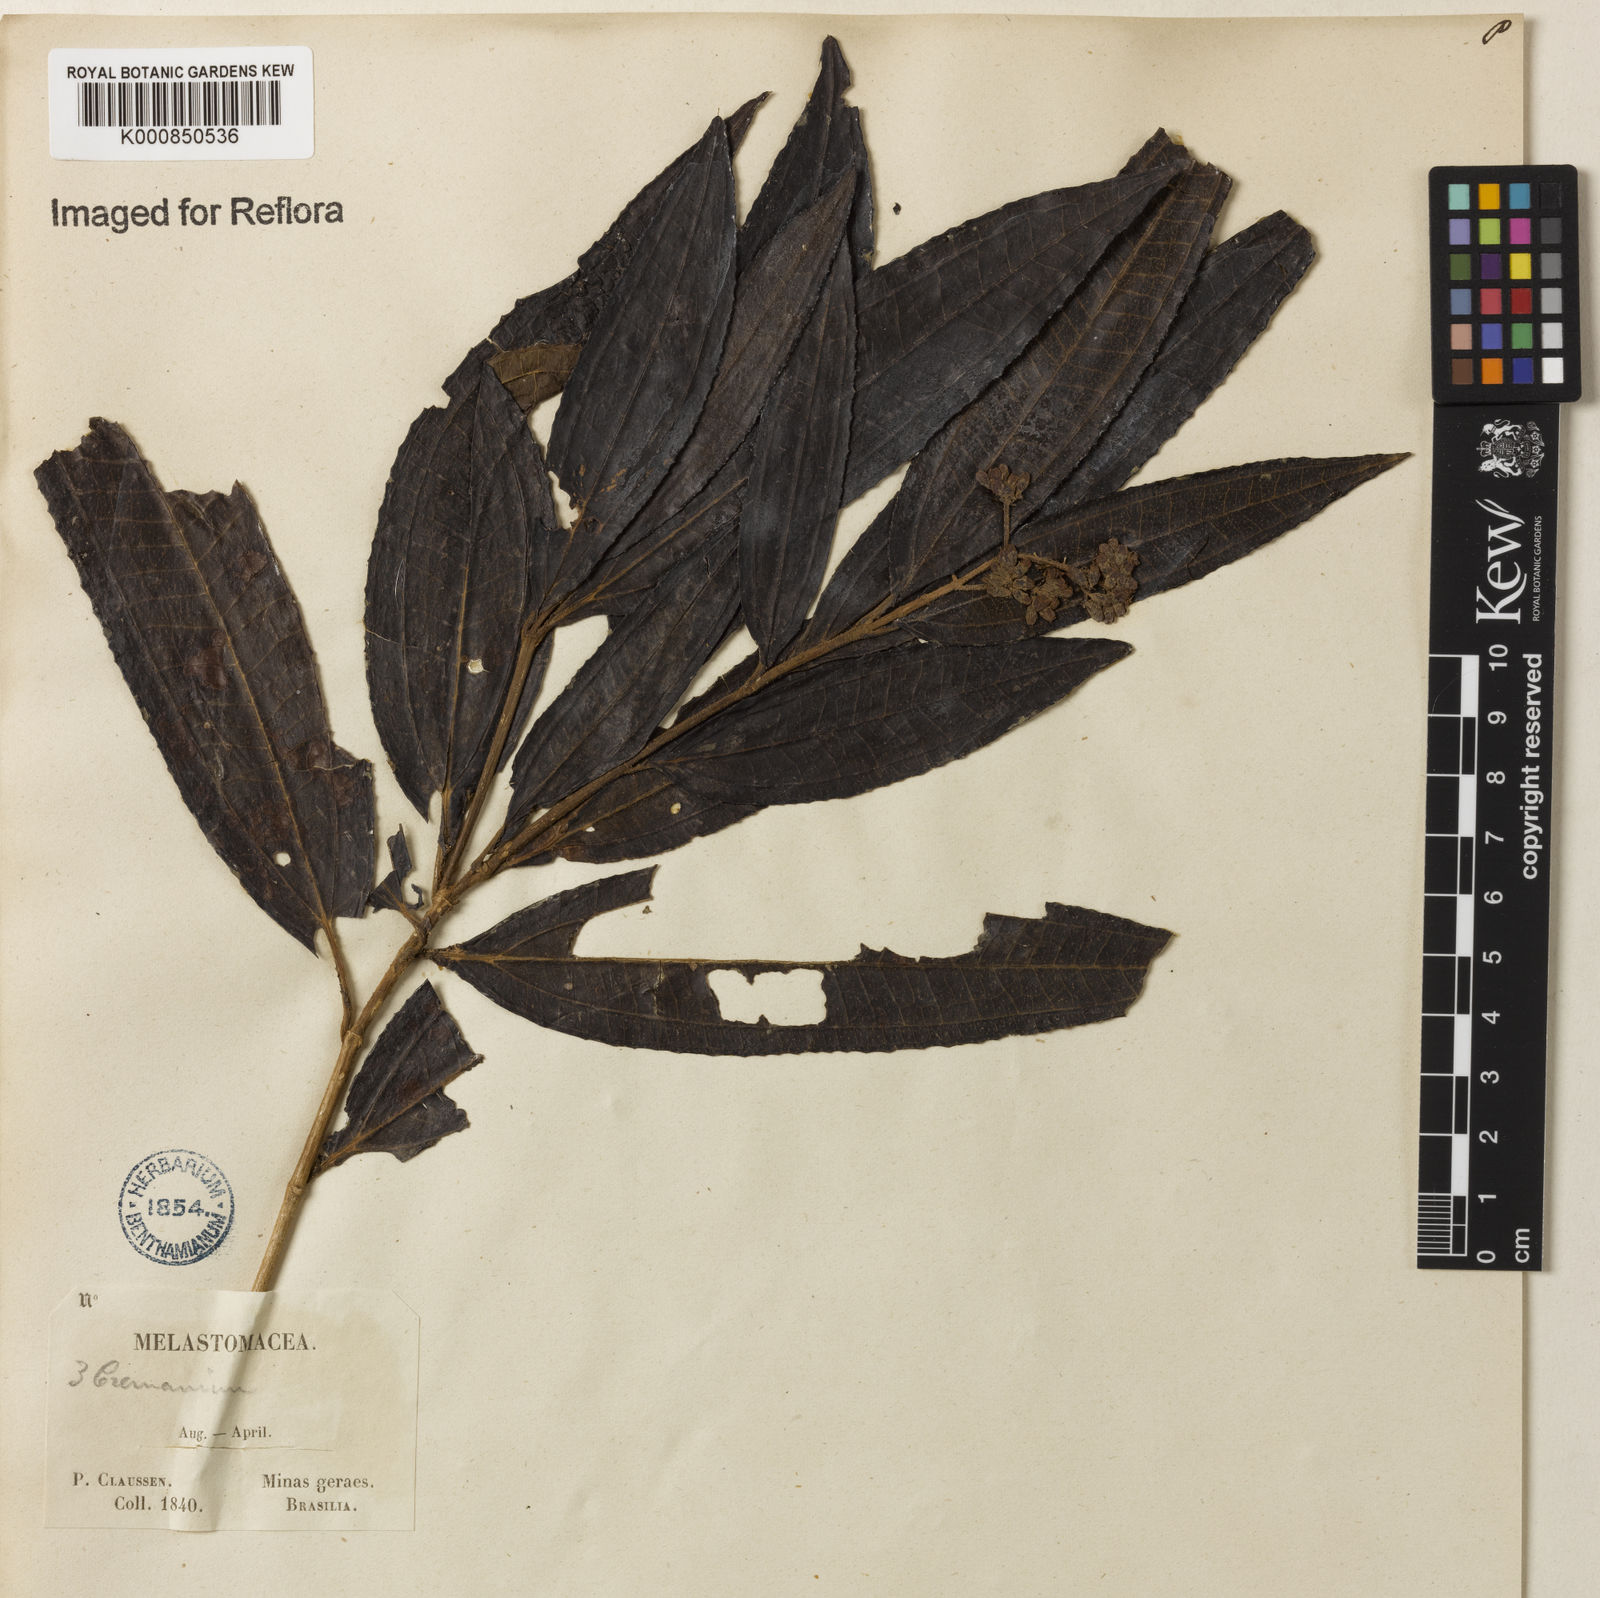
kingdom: Plantae
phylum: Tracheophyta
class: Magnoliopsida
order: Myrtales
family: Melastomataceae
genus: Miconia
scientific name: Miconia
